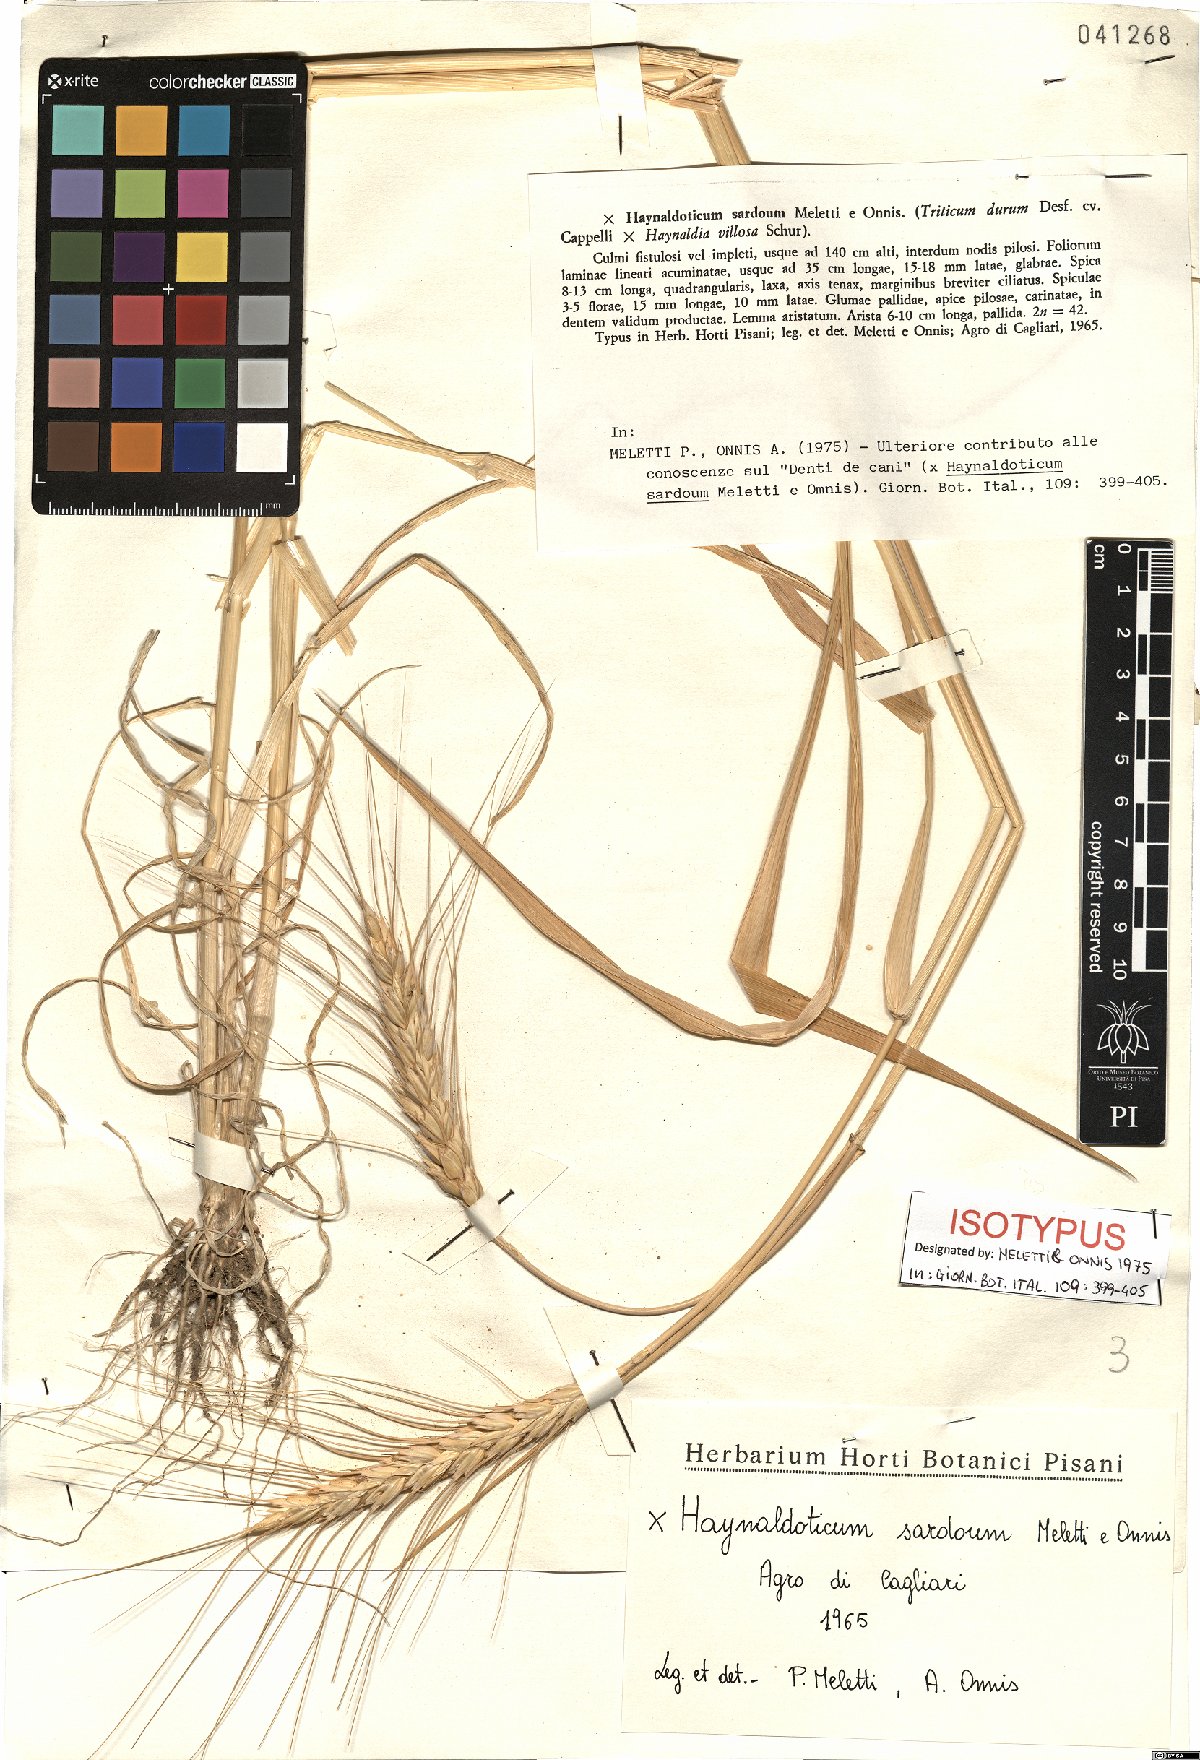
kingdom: Plantae
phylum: Tracheophyta
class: Liliopsida
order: Poales
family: Poaceae
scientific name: Poaceae
